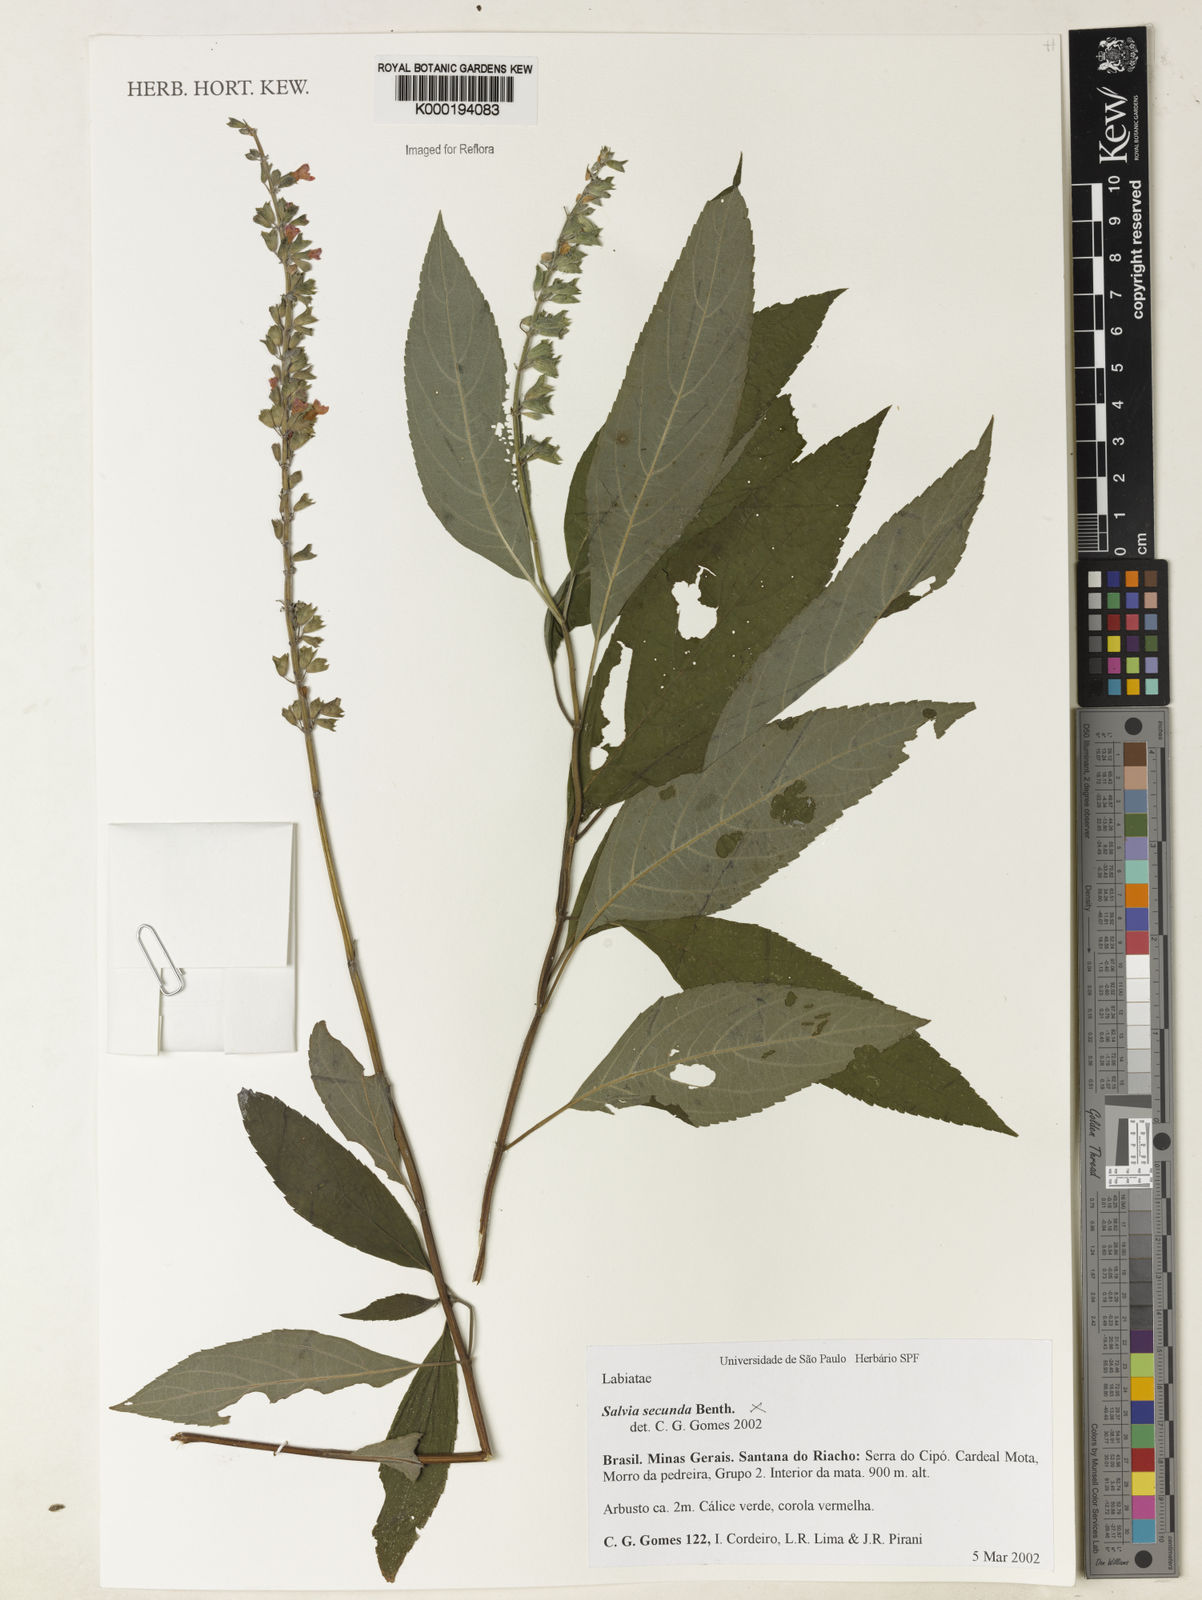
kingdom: Plantae
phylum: Tracheophyta
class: Magnoliopsida
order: Lamiales
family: Lamiaceae
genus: Salvia
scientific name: Salvia harleyana
